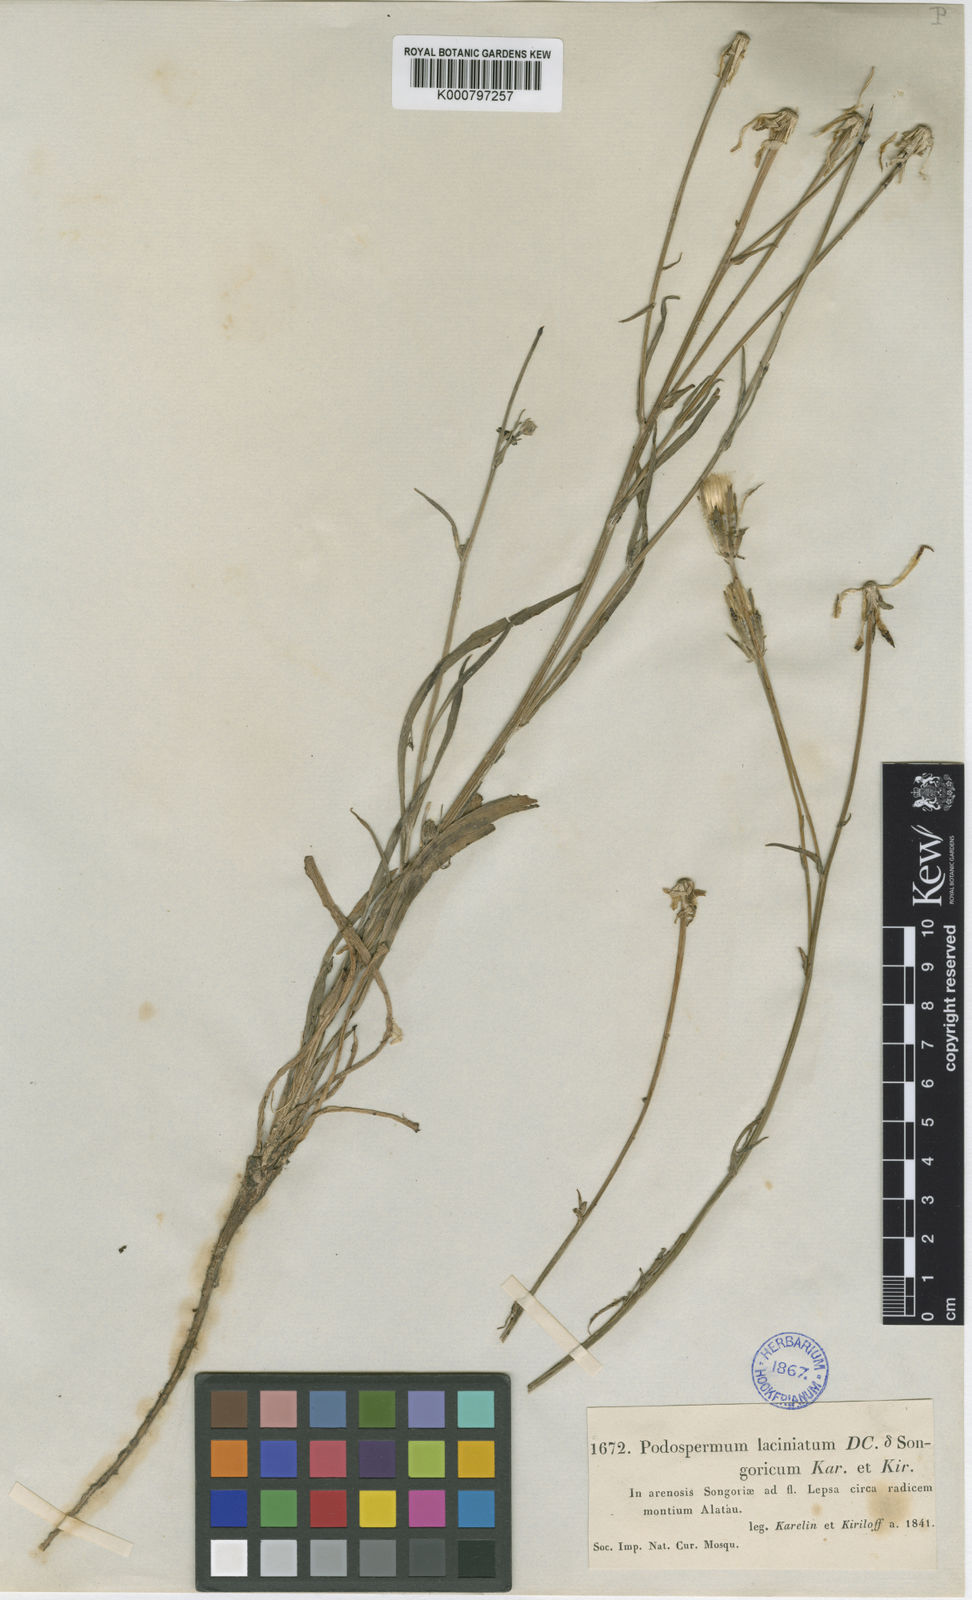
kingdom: Plantae
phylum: Tracheophyta
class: Magnoliopsida
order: Asterales
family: Asteraceae
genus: Scorzonera
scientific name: Scorzonera laciniata
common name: Cutleaf vipergrass
